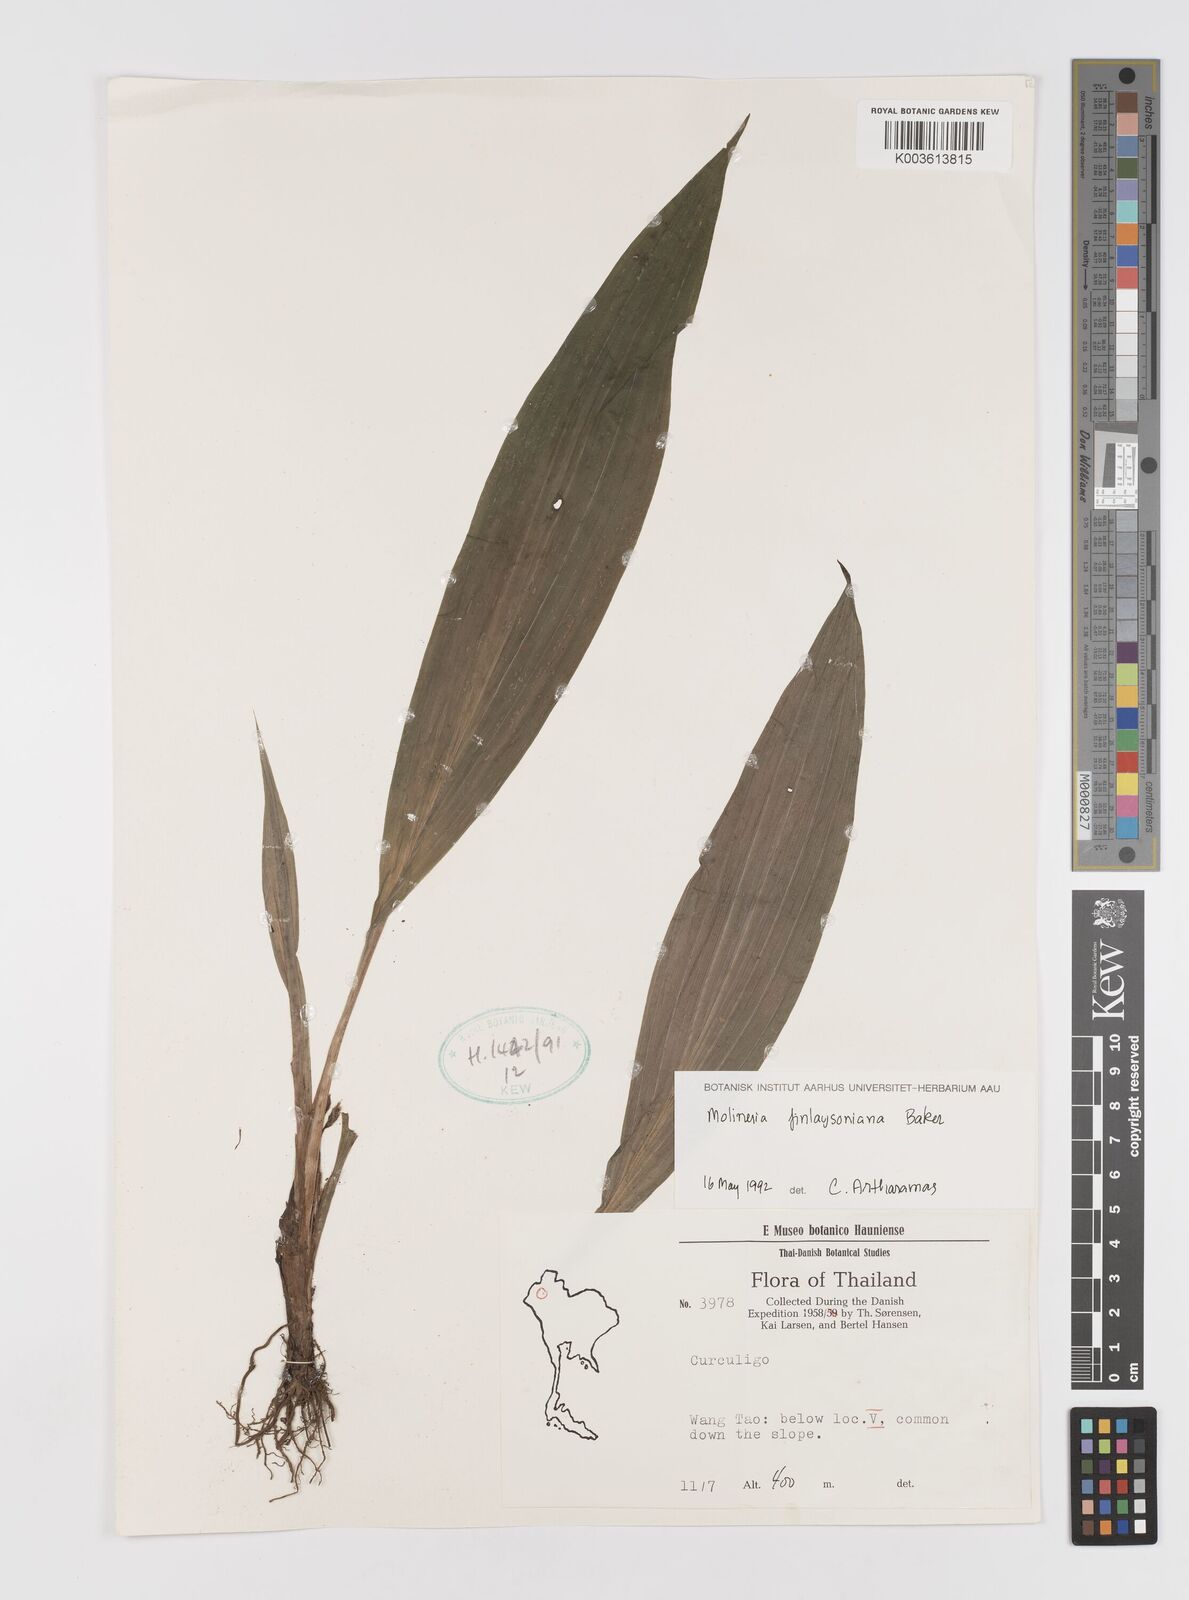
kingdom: Plantae
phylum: Tracheophyta
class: Liliopsida
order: Asparagales
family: Hypoxidaceae
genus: Curculigo
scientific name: Curculigo trichocarpa
